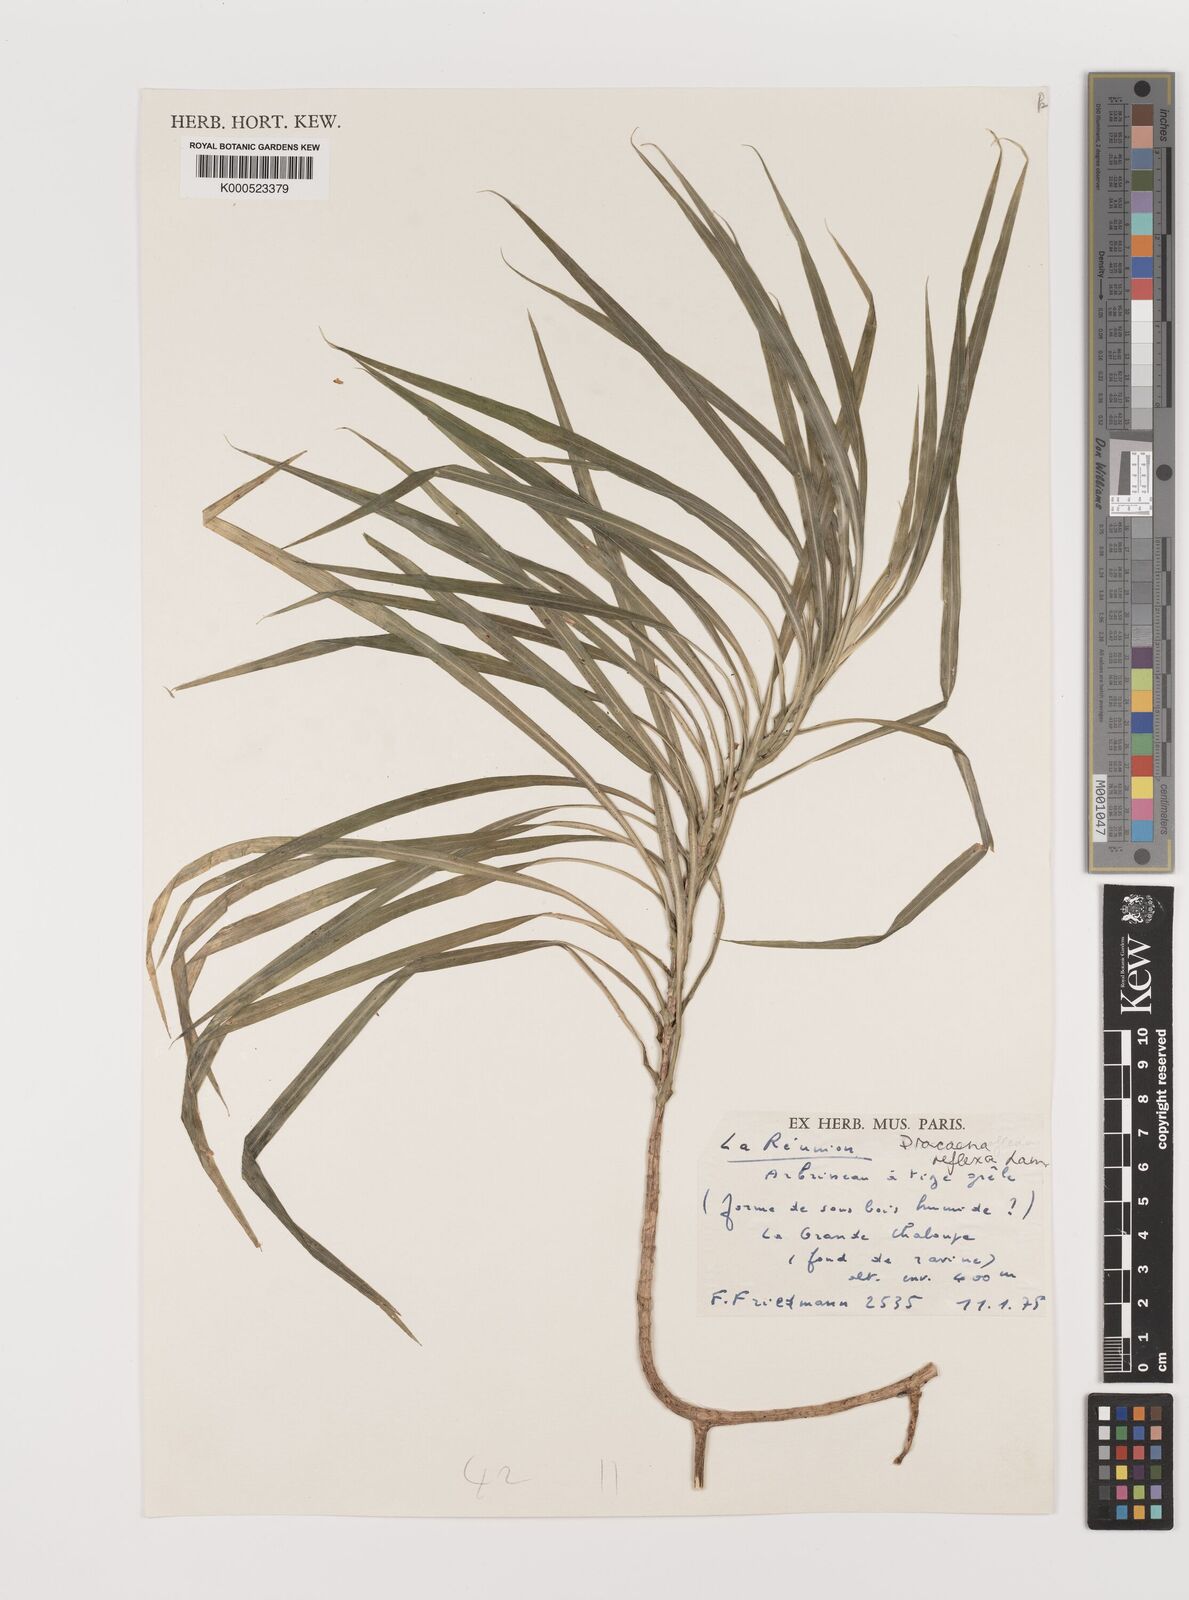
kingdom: Plantae
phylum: Tracheophyta
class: Liliopsida
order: Asparagales
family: Asparagaceae
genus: Dracaena
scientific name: Dracaena reflexa
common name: Song-of-india
